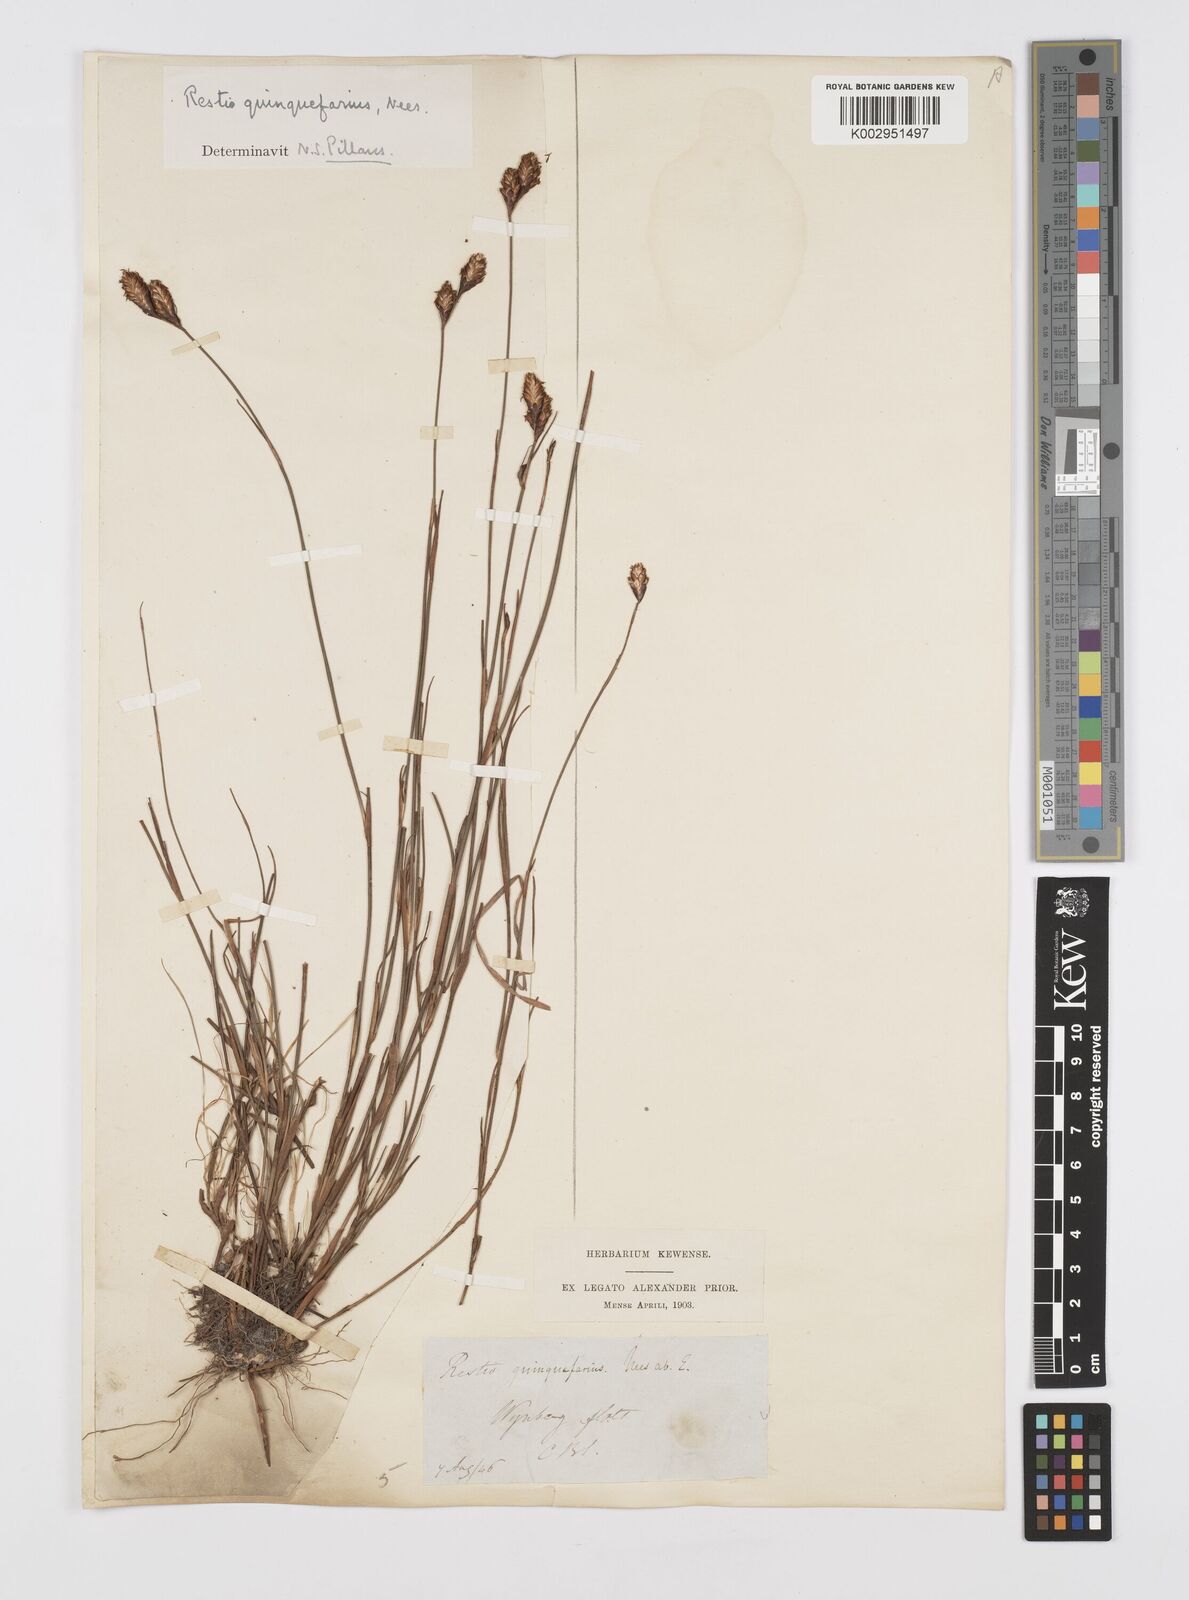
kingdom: Plantae
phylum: Tracheophyta
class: Liliopsida
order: Poales
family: Restionaceae
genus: Restio
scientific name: Restio quinquefarius
